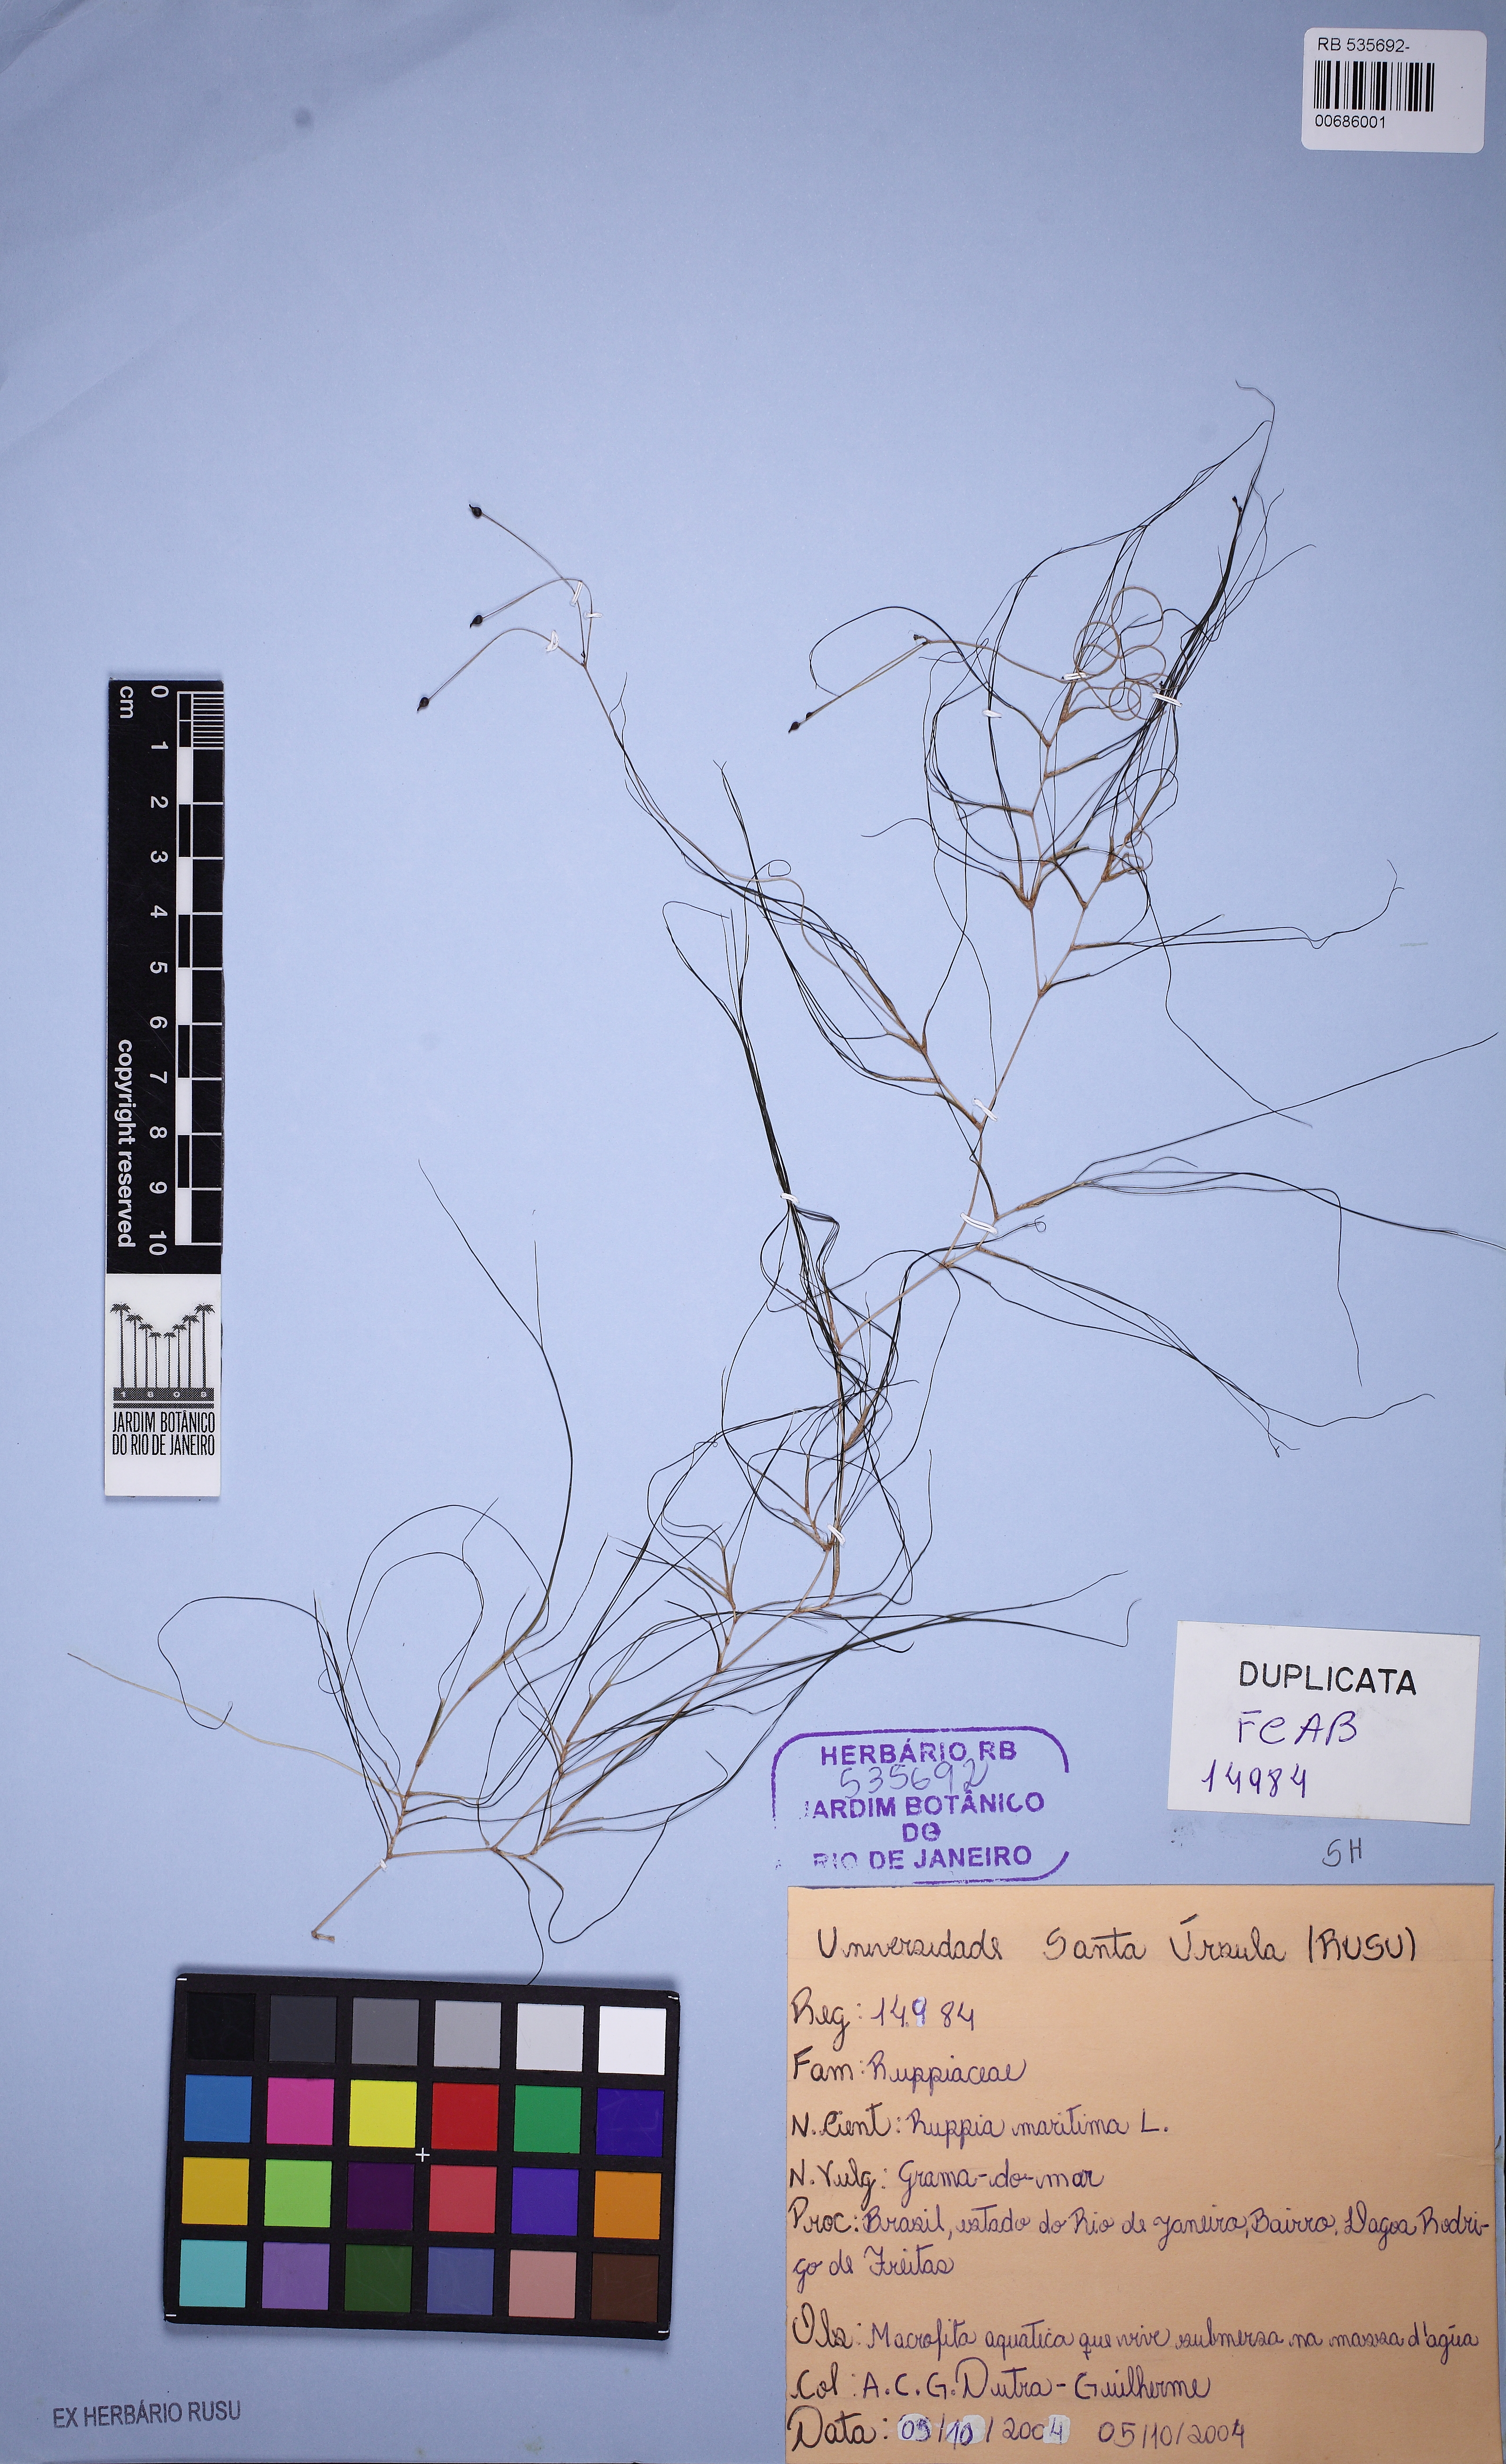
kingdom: Plantae
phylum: Tracheophyta
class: Liliopsida
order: Alismatales
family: Ruppiaceae
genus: Ruppia
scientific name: Ruppia maritima
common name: Beaked tasselweed
